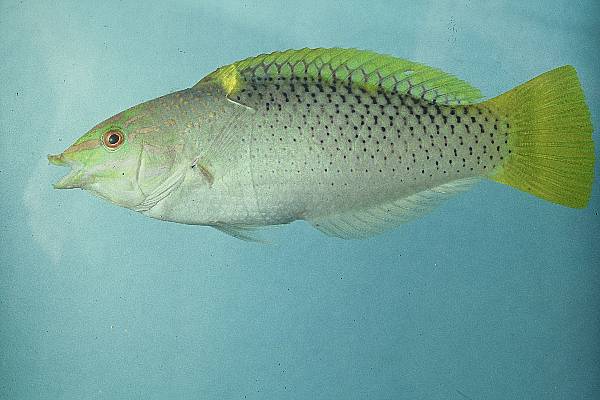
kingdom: Animalia
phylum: Chordata
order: Perciformes
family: Labridae
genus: Halichoeres
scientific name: Halichoeres hortulanus
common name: Checkerboard wrasse
